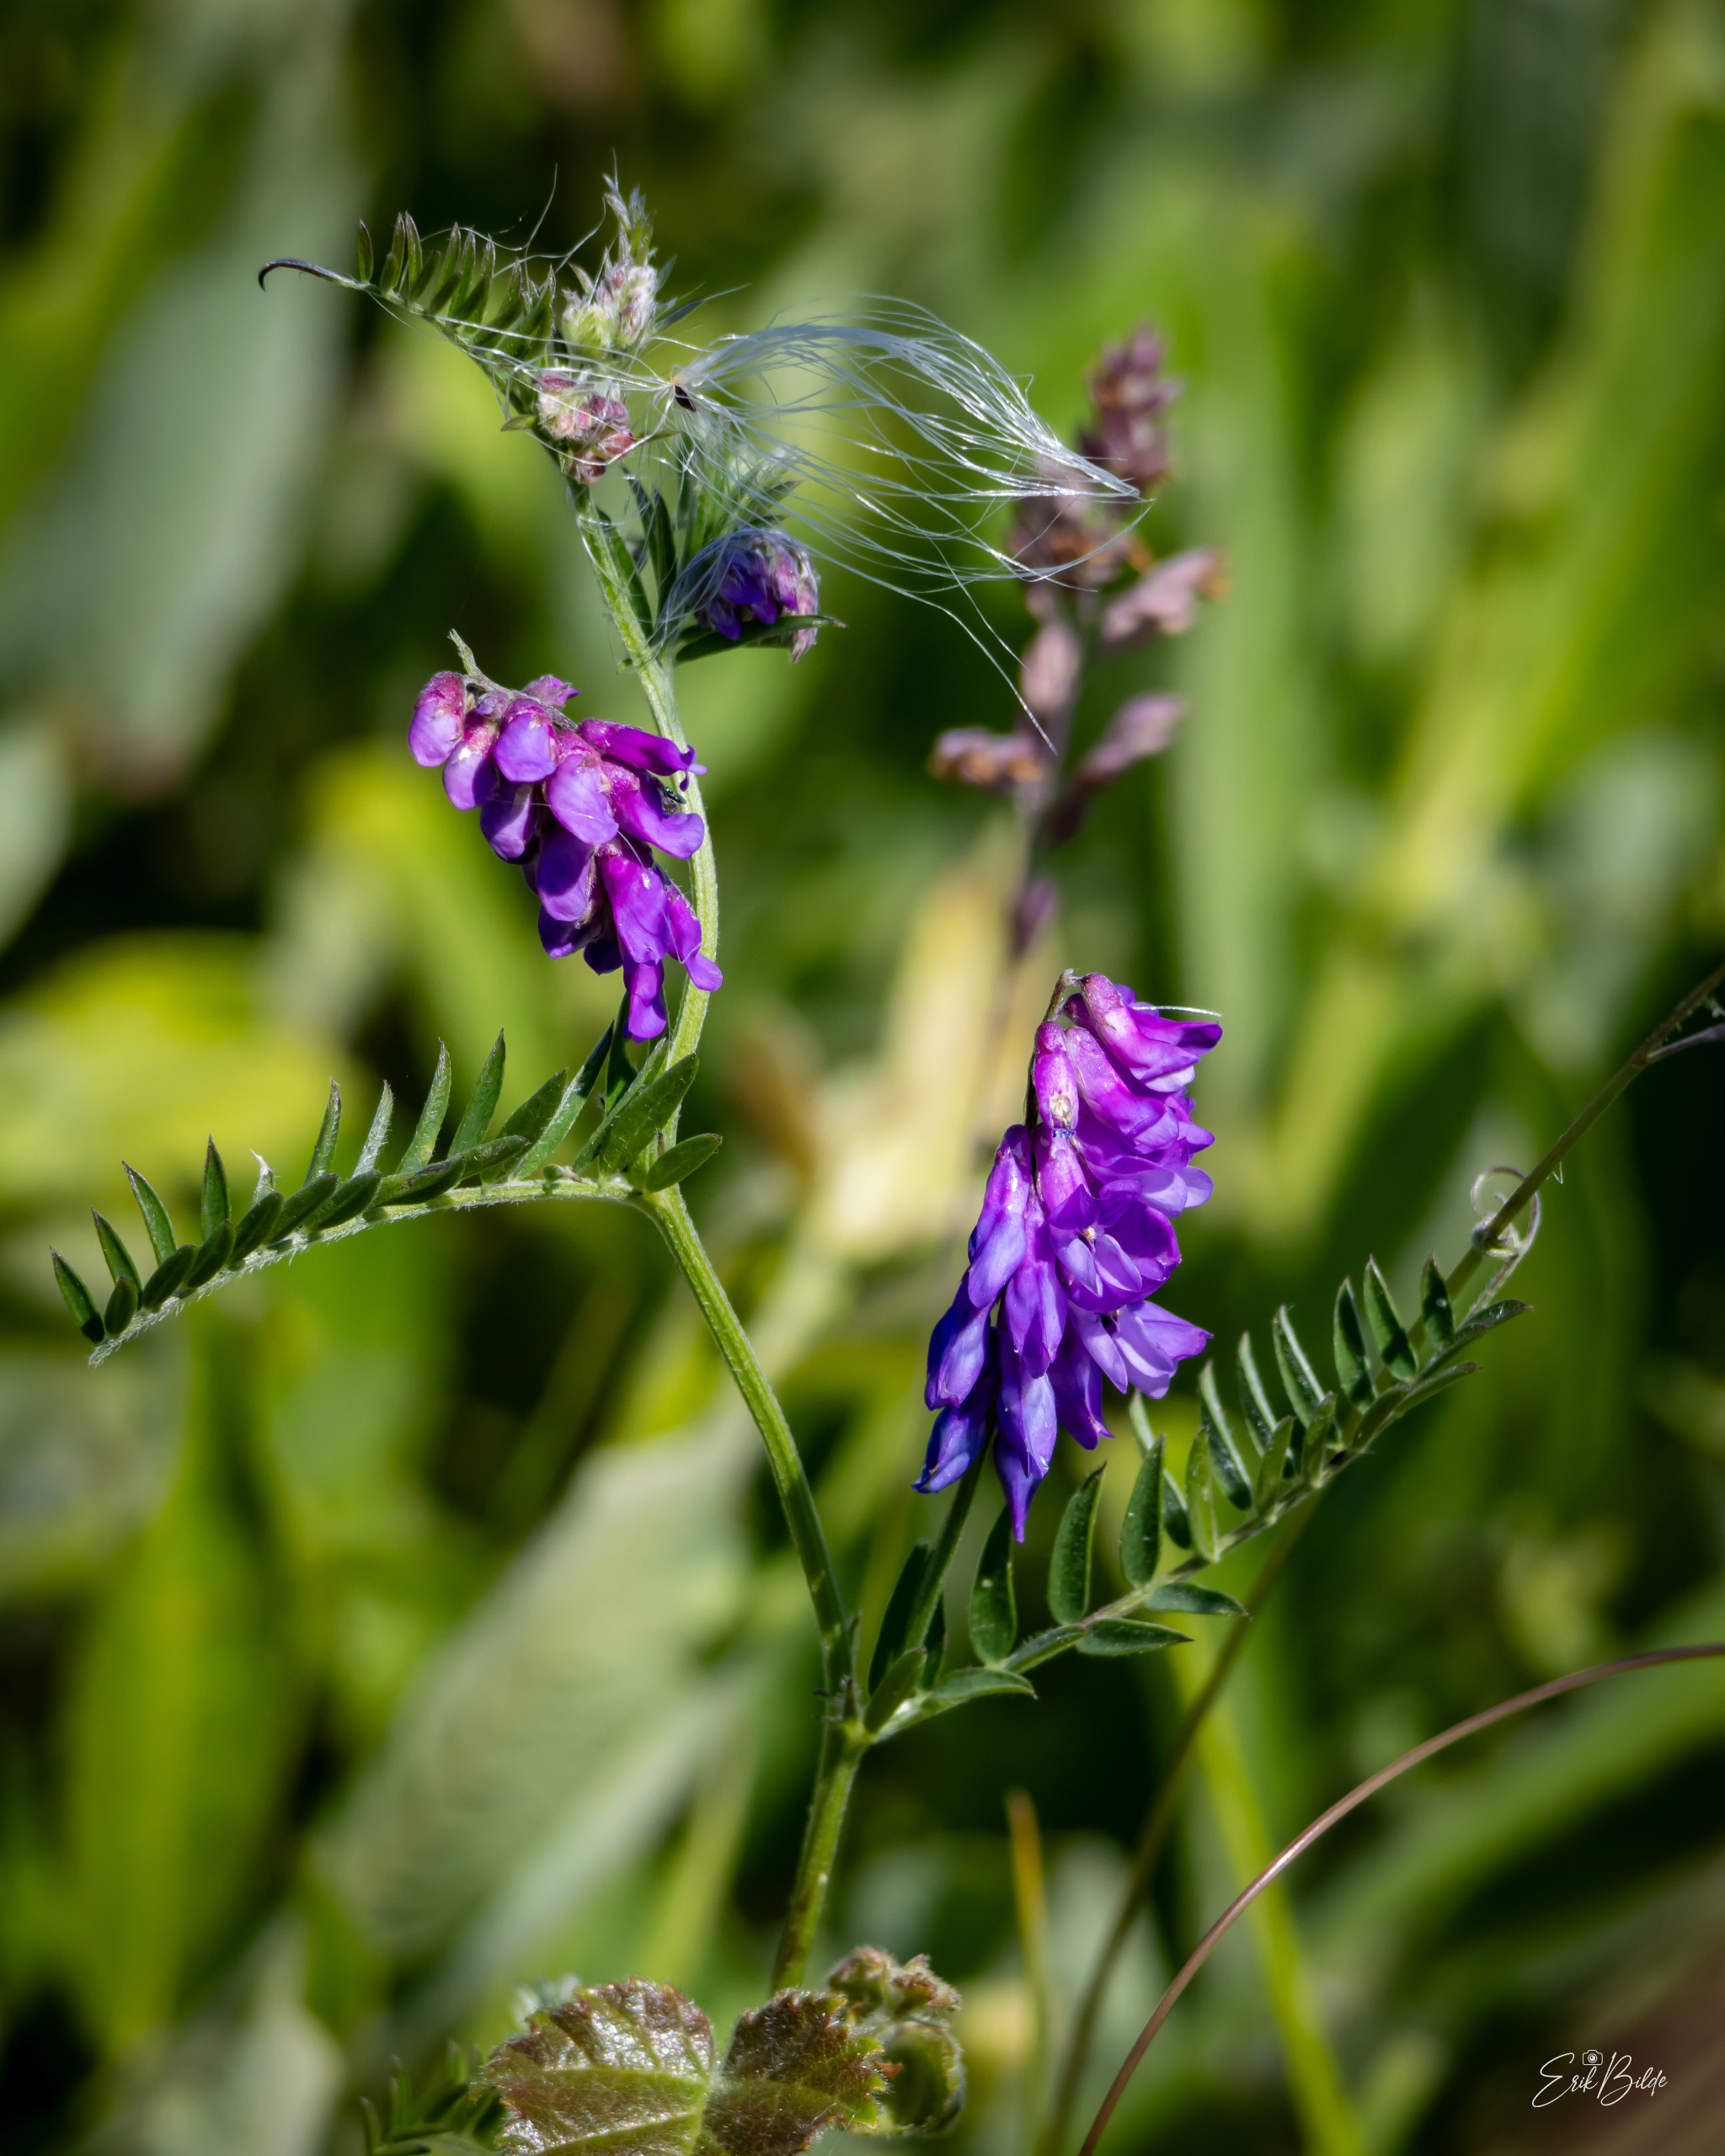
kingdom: Plantae
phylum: Tracheophyta
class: Magnoliopsida
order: Fabales
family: Fabaceae
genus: Vicia
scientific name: Vicia cracca
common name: Muse-vikke
